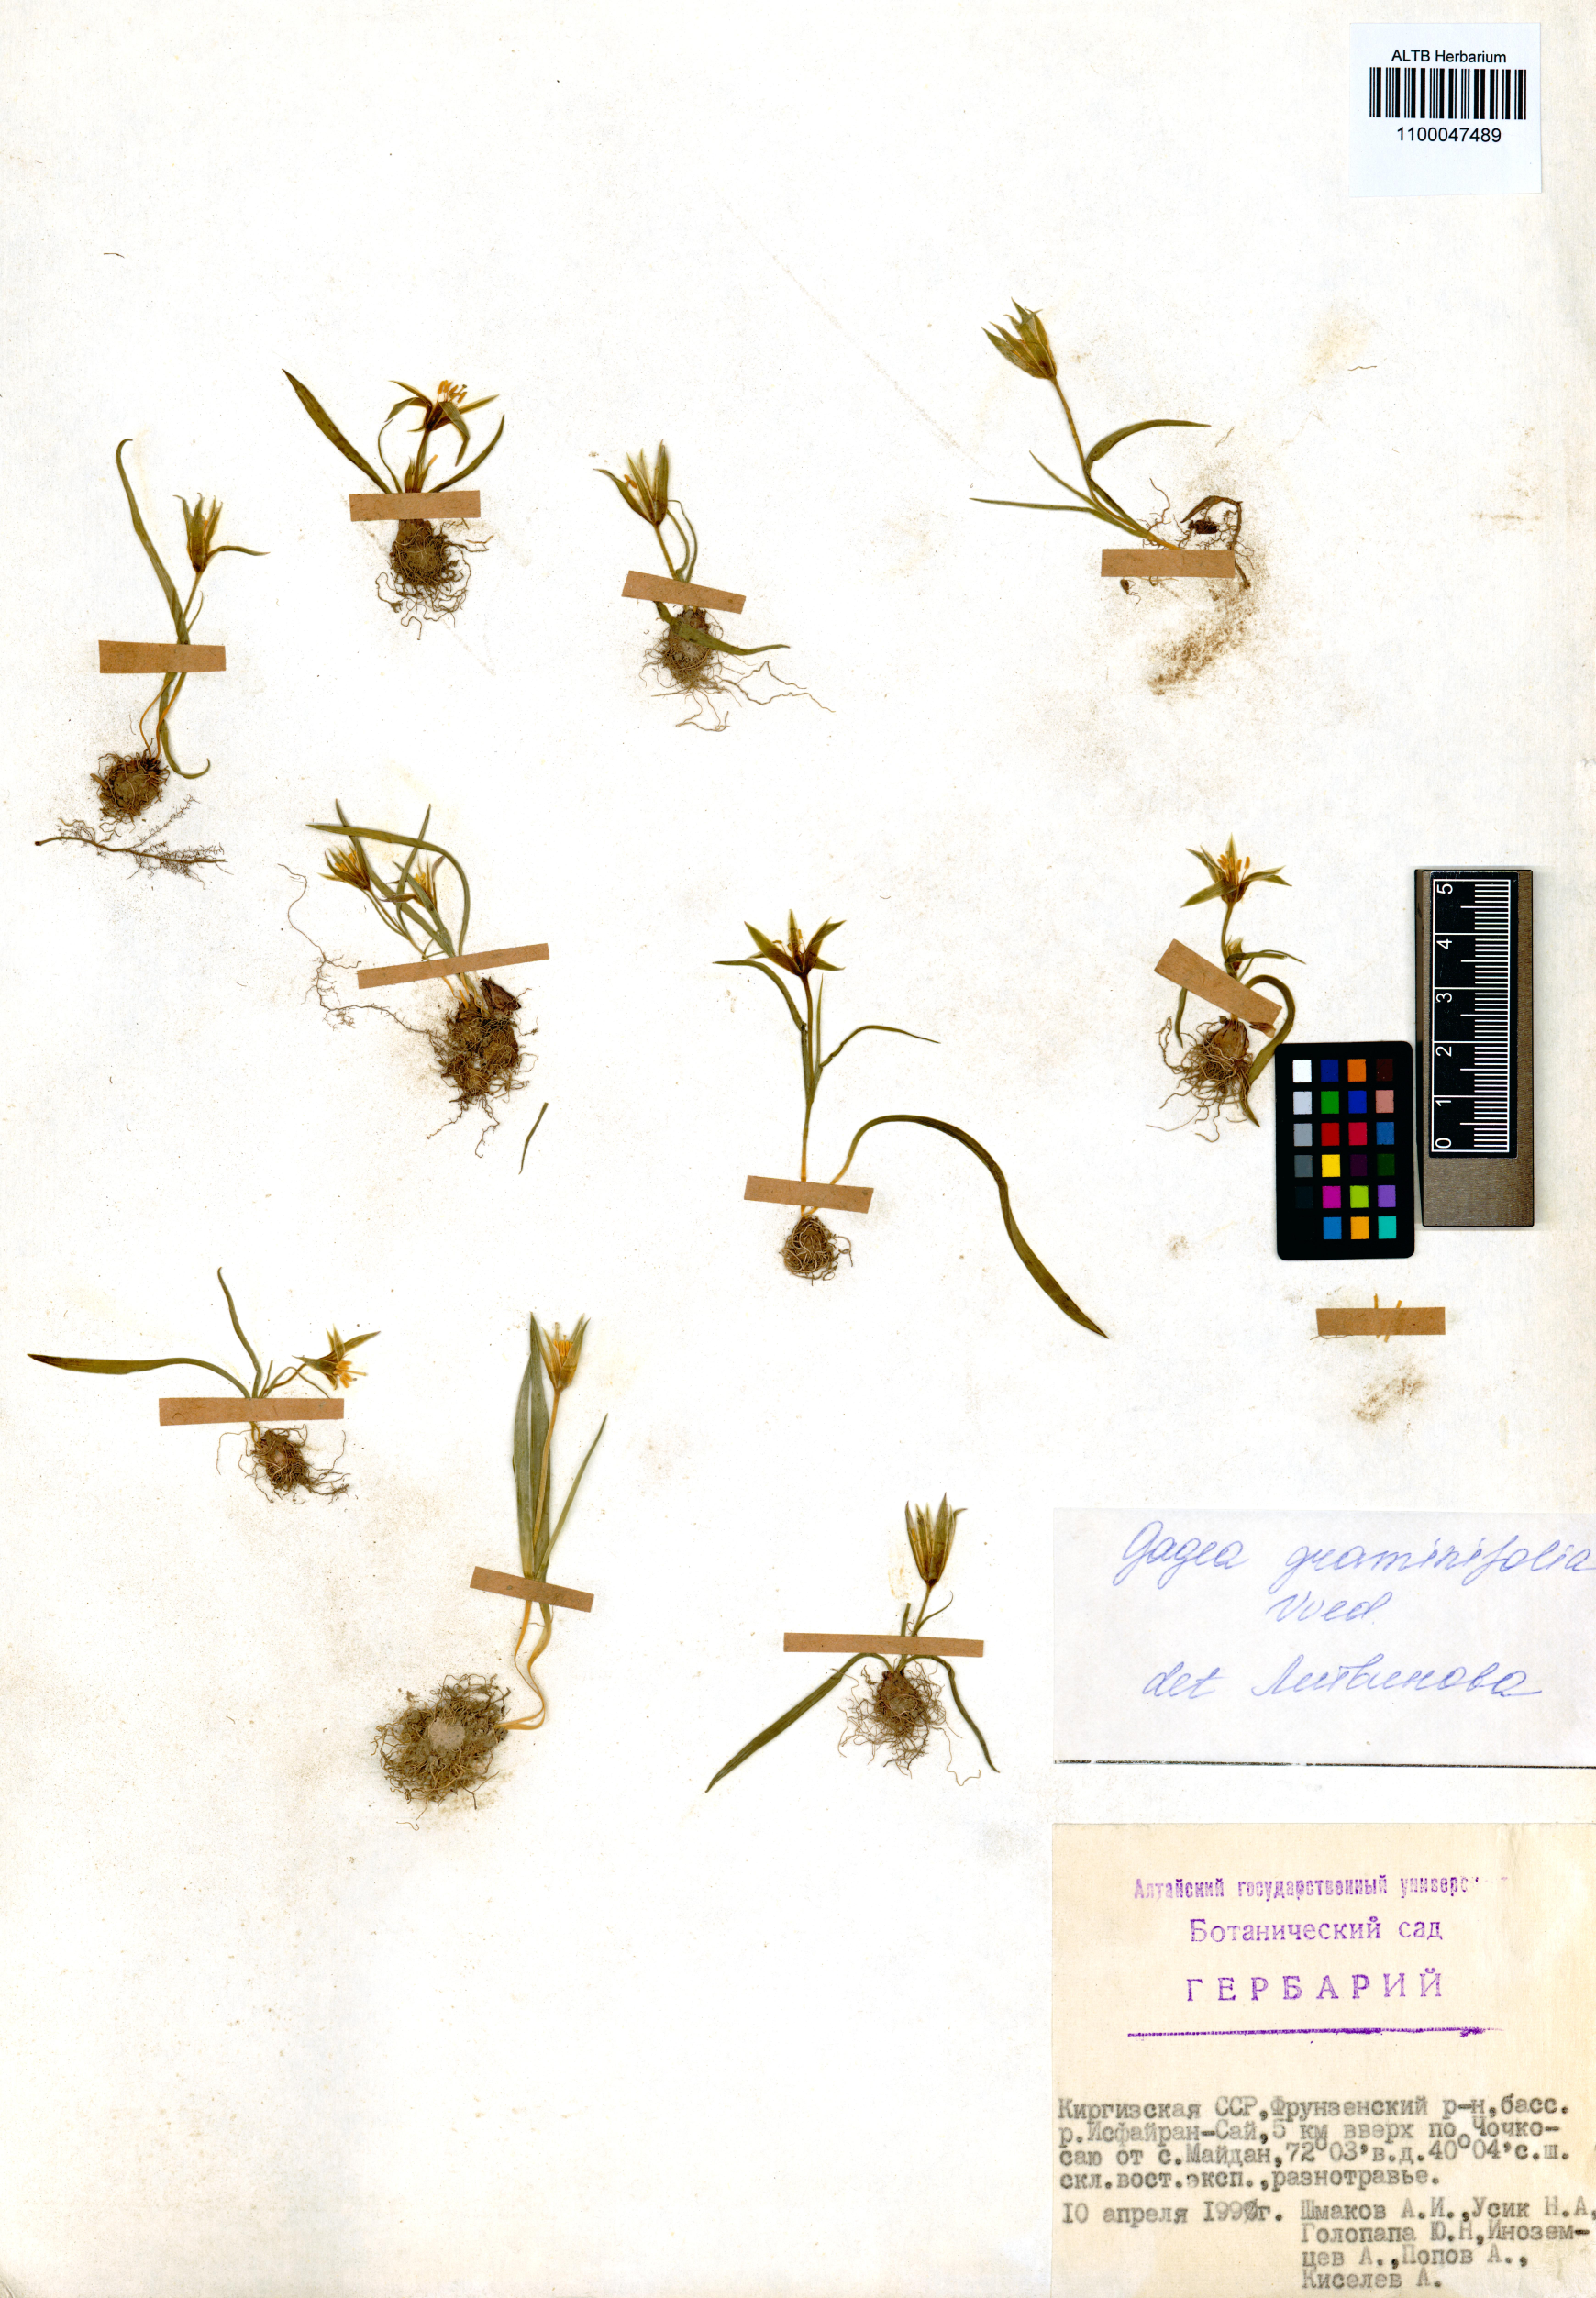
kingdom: Plantae
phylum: Tracheophyta
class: Liliopsida
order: Liliales
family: Liliaceae
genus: Gagea
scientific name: Gagea graminifolia
